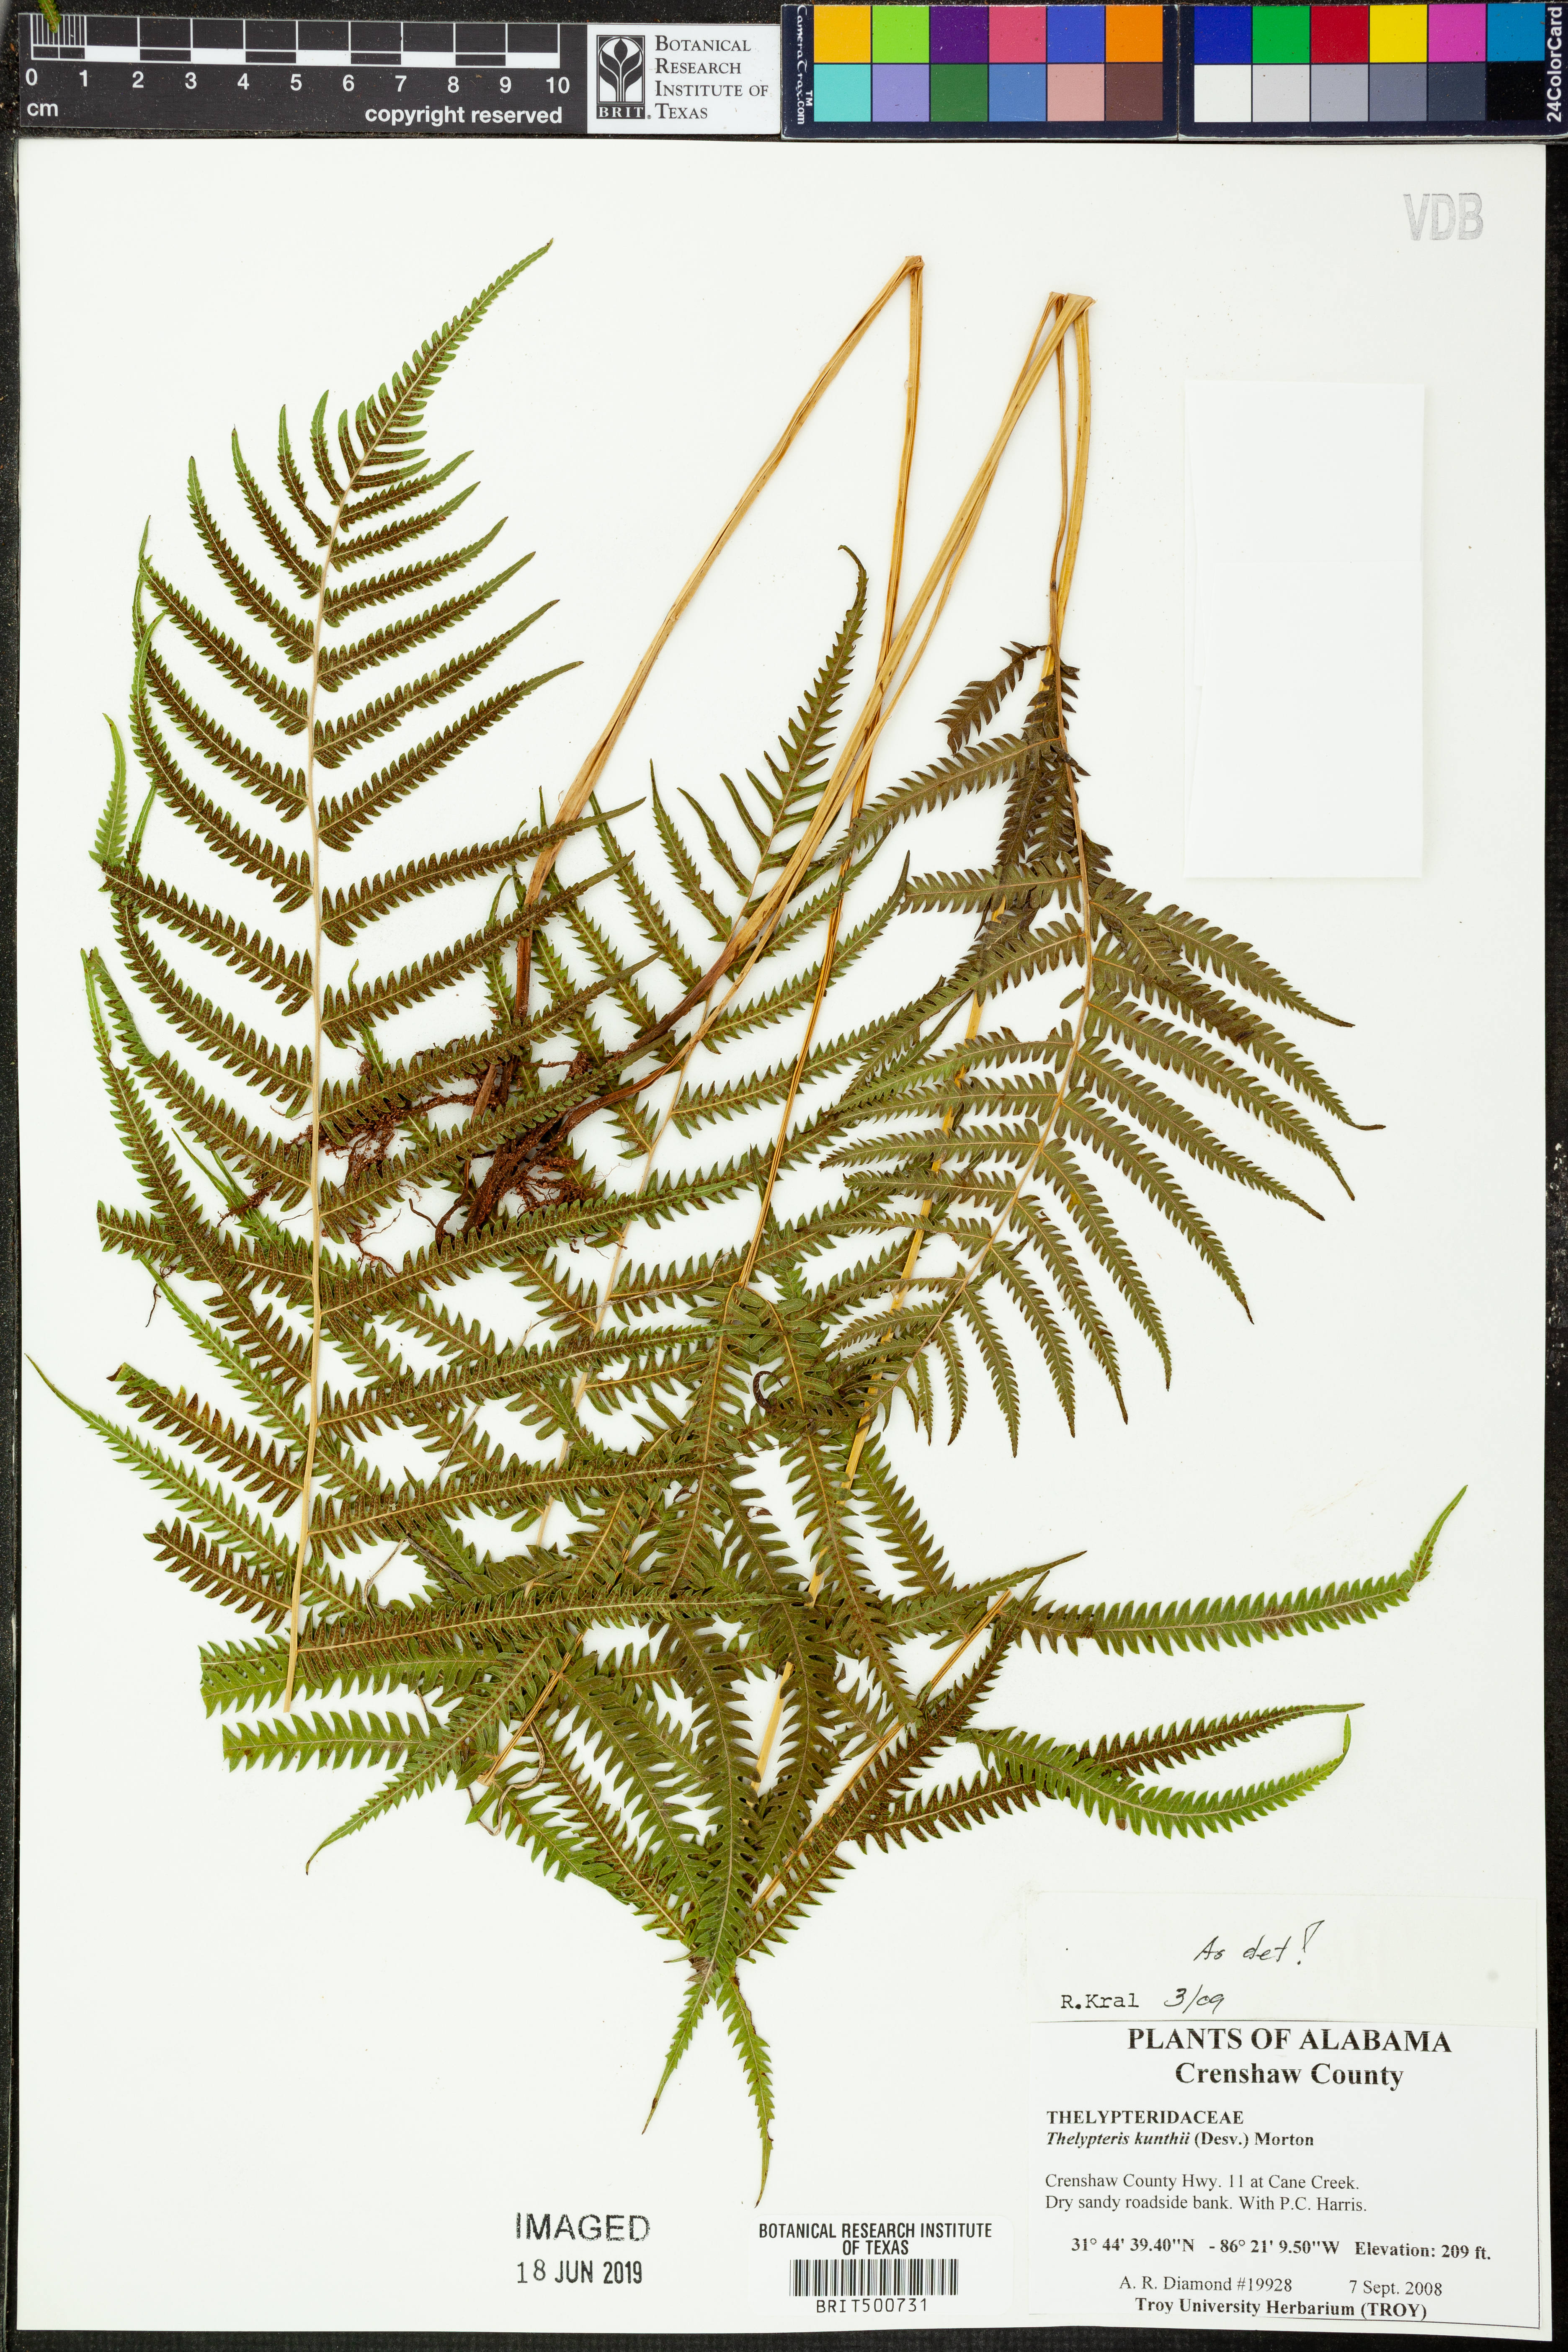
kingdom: Plantae
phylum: Tracheophyta
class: Polypodiopsida
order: Polypodiales
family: Thelypteridaceae
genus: Pelazoneuron
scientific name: Pelazoneuron kunthii
